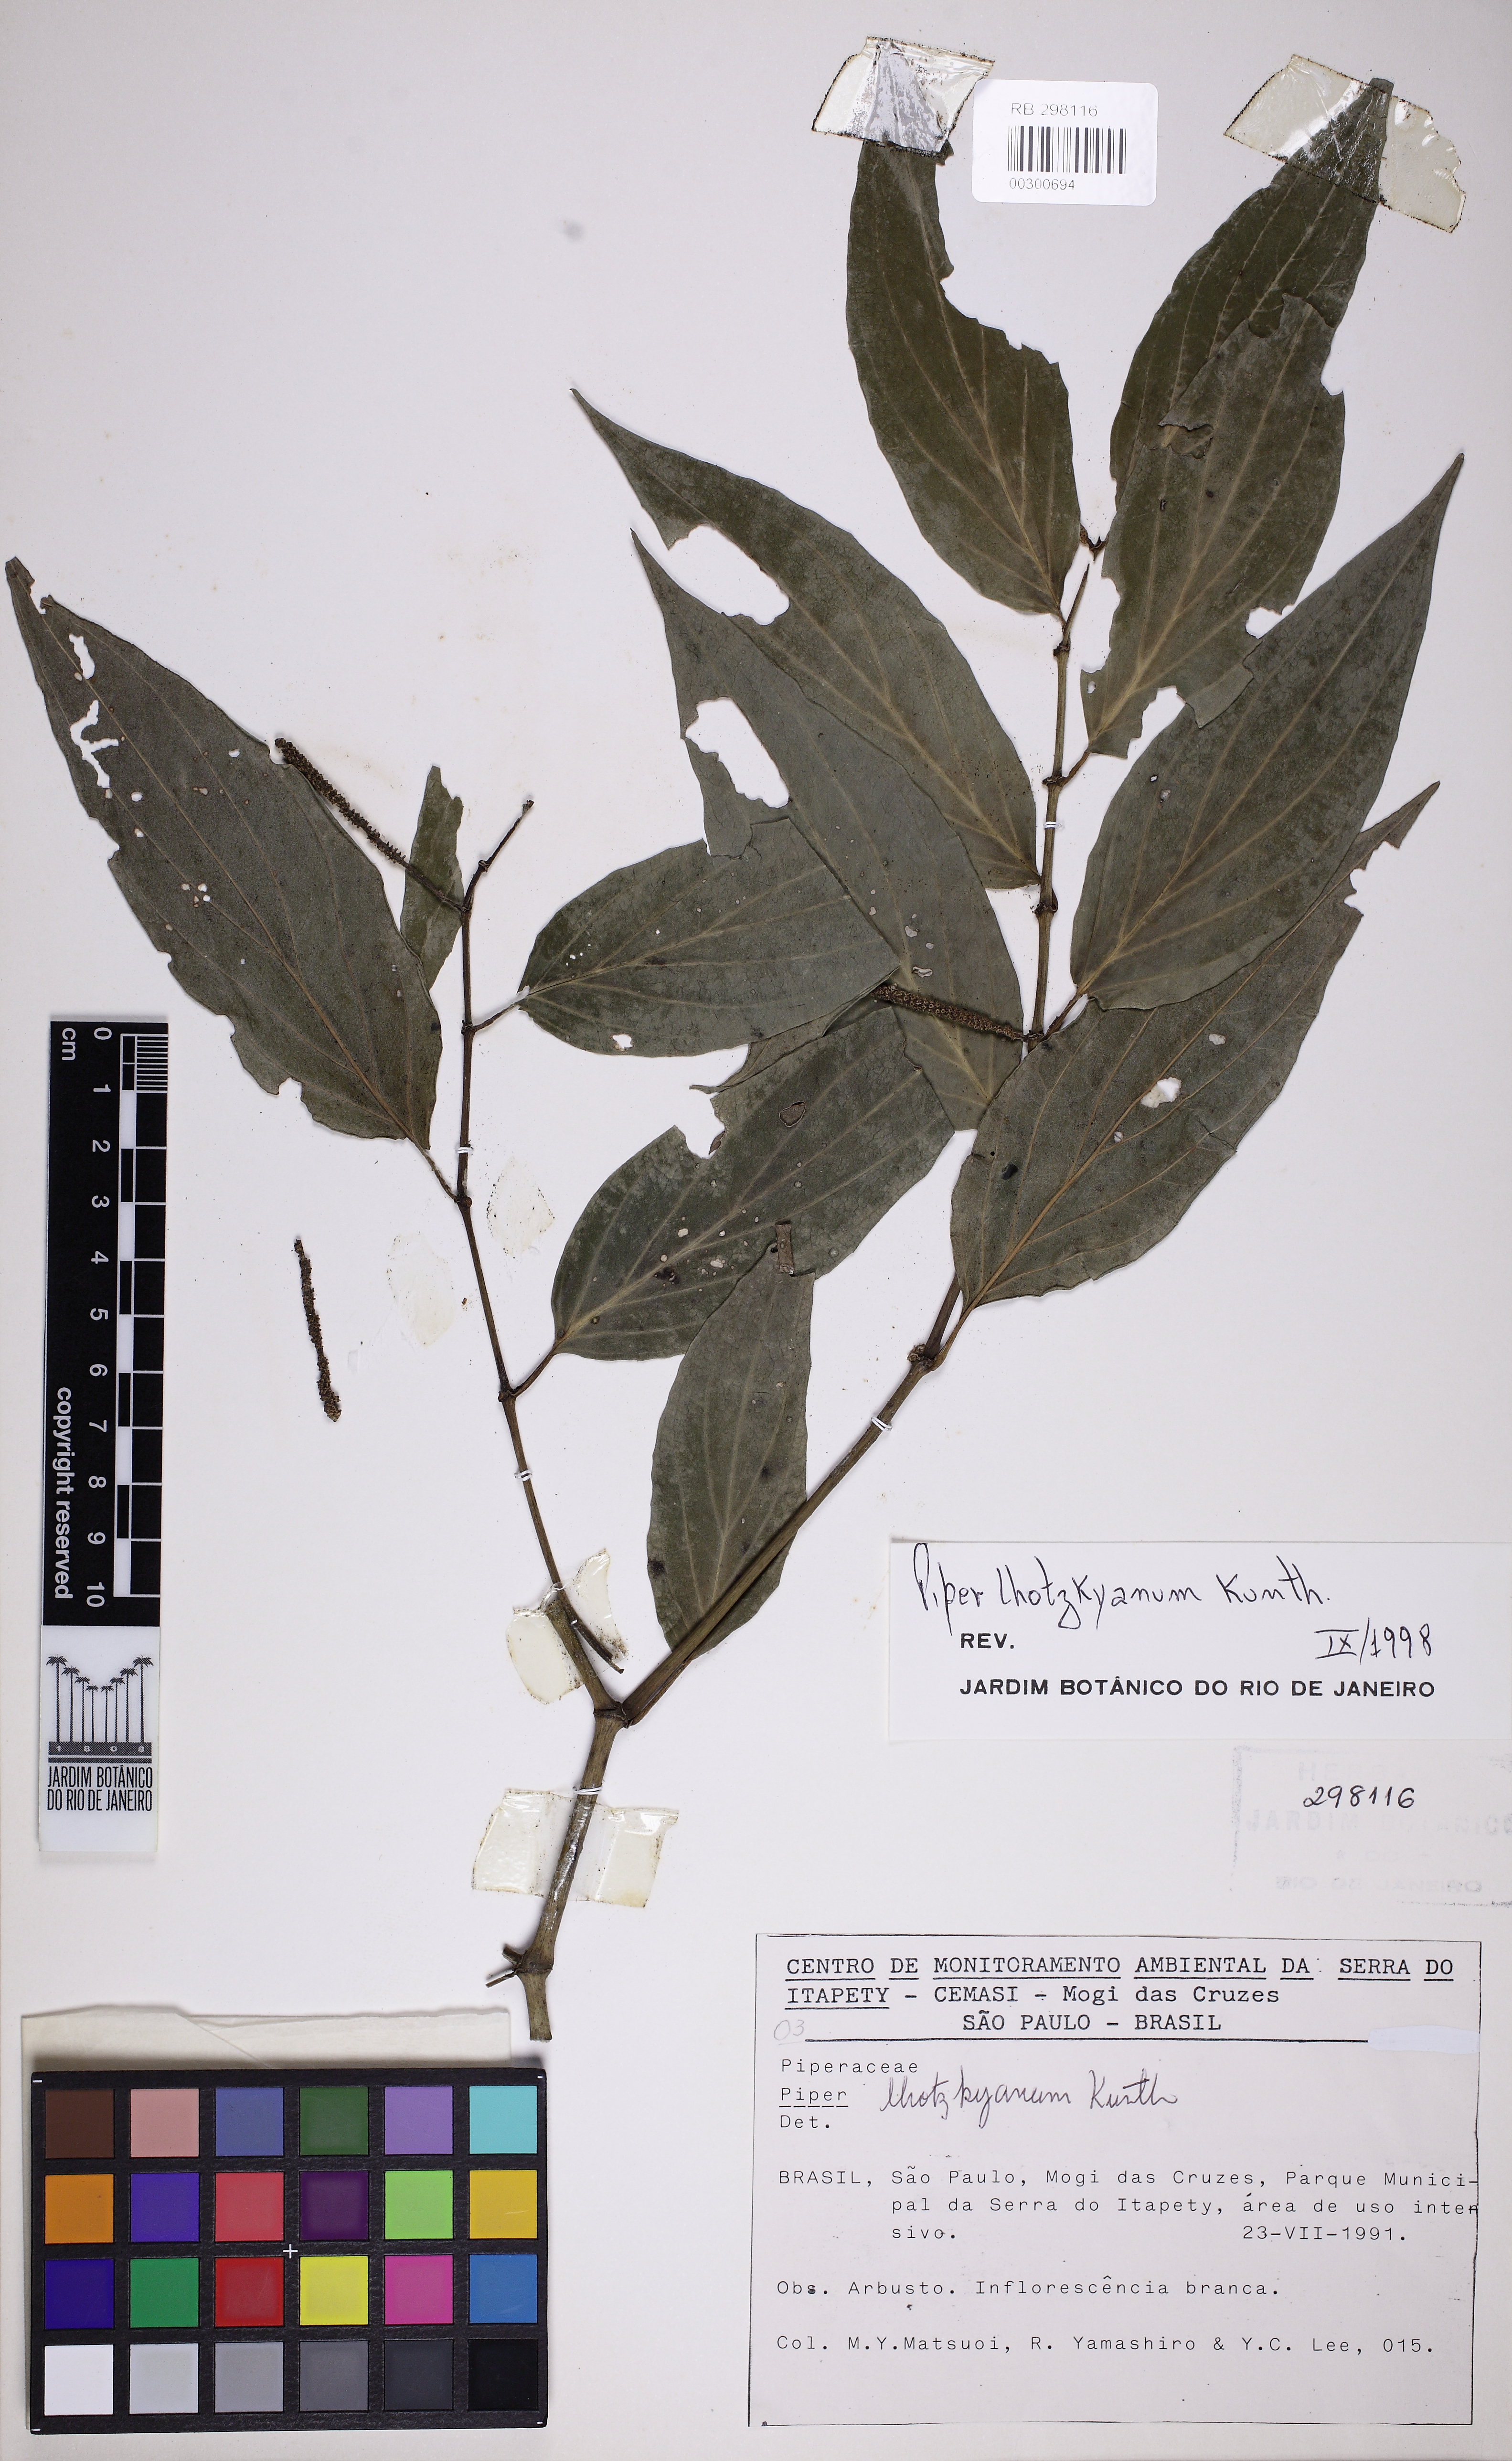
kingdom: Plantae
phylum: Tracheophyta
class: Magnoliopsida
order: Piperales
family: Piperaceae
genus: Piper
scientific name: Piper lhotzkyanum
